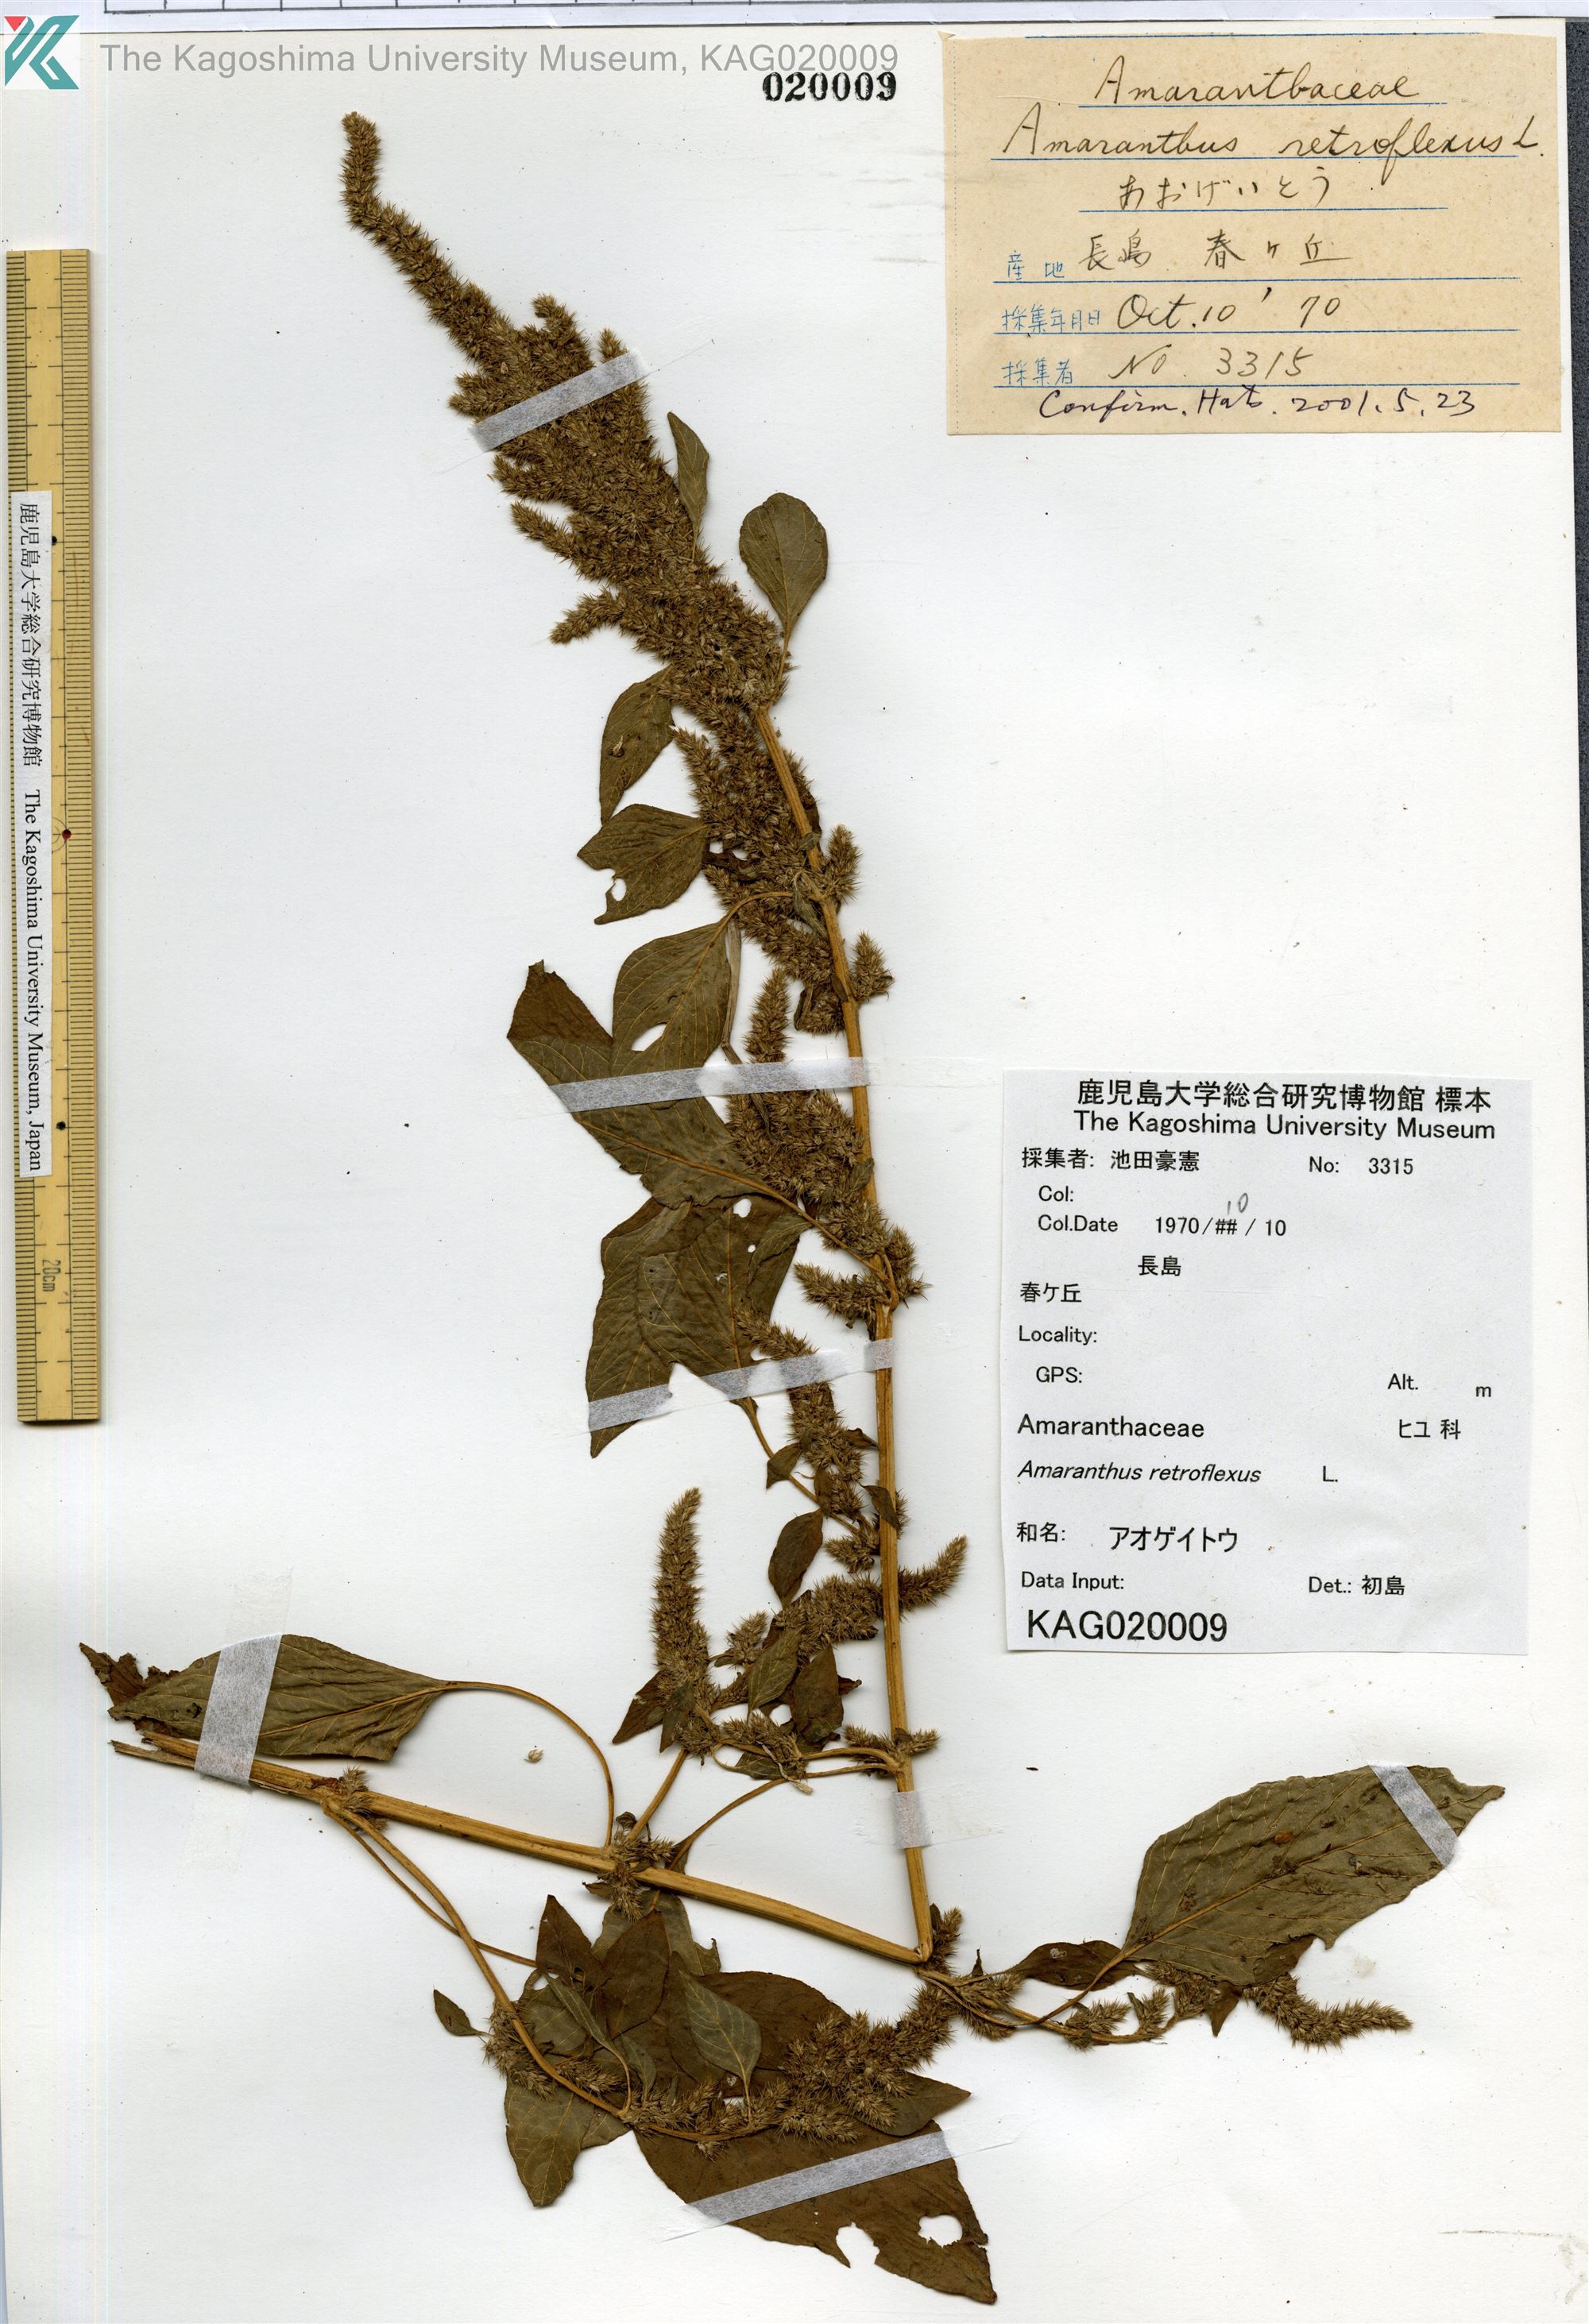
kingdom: Plantae
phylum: Tracheophyta
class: Magnoliopsida
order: Caryophyllales
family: Amaranthaceae
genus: Amaranthus
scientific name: Amaranthus retroflexus
